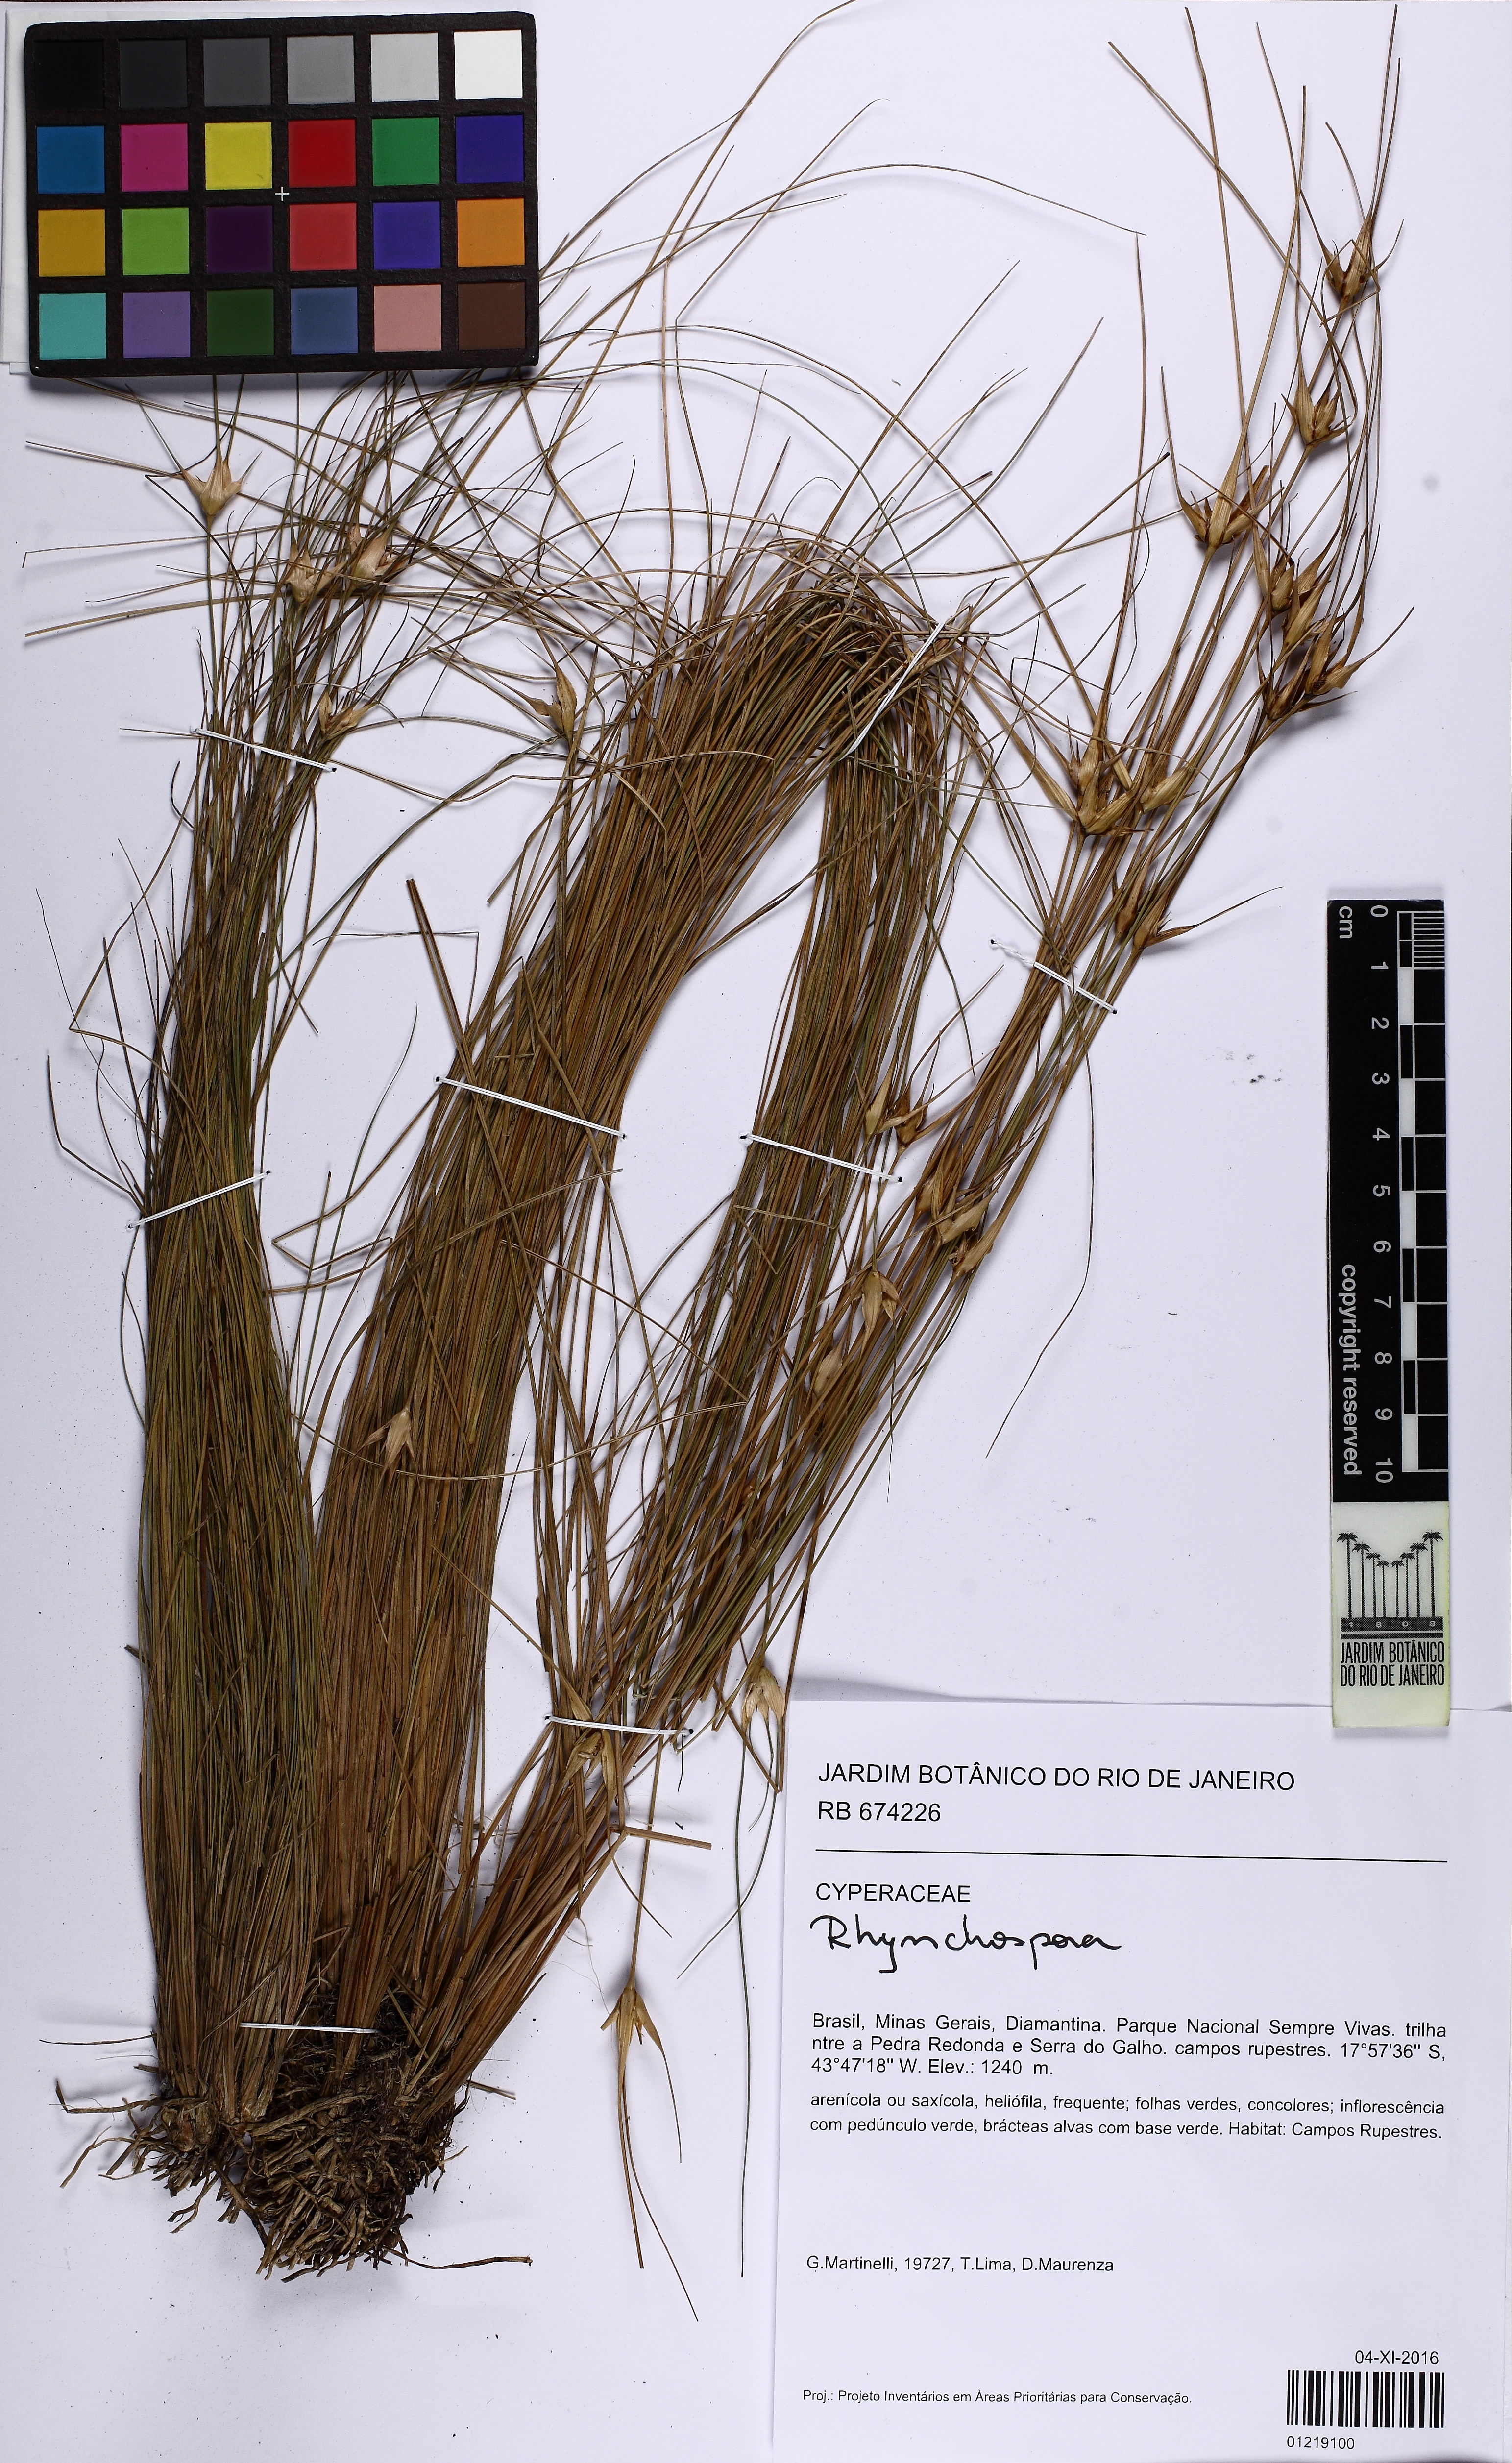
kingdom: Plantae
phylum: Tracheophyta
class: Liliopsida
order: Poales
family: Cyperaceae
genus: Rhynchospora
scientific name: Rhynchospora albobracteata
